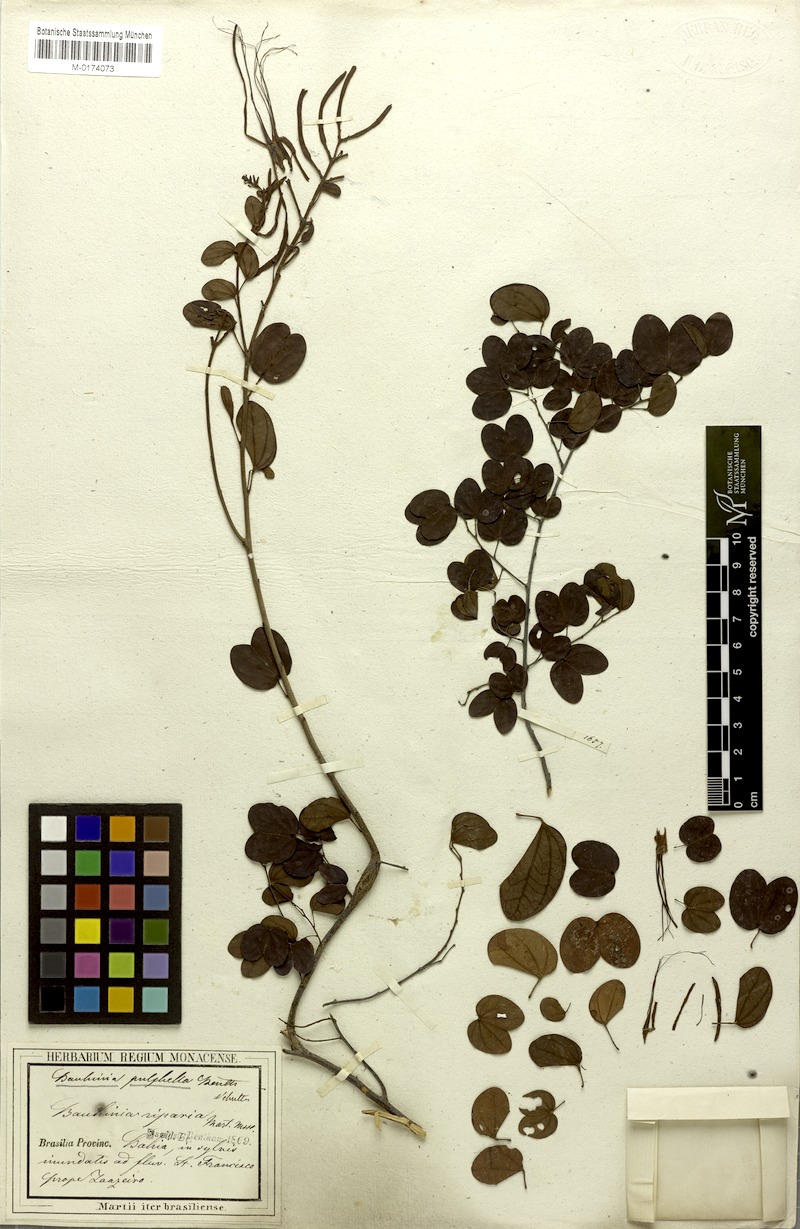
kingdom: Plantae
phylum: Tracheophyta
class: Magnoliopsida
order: Fabales
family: Fabaceae
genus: Bauhinia
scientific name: Bauhinia pulchella
